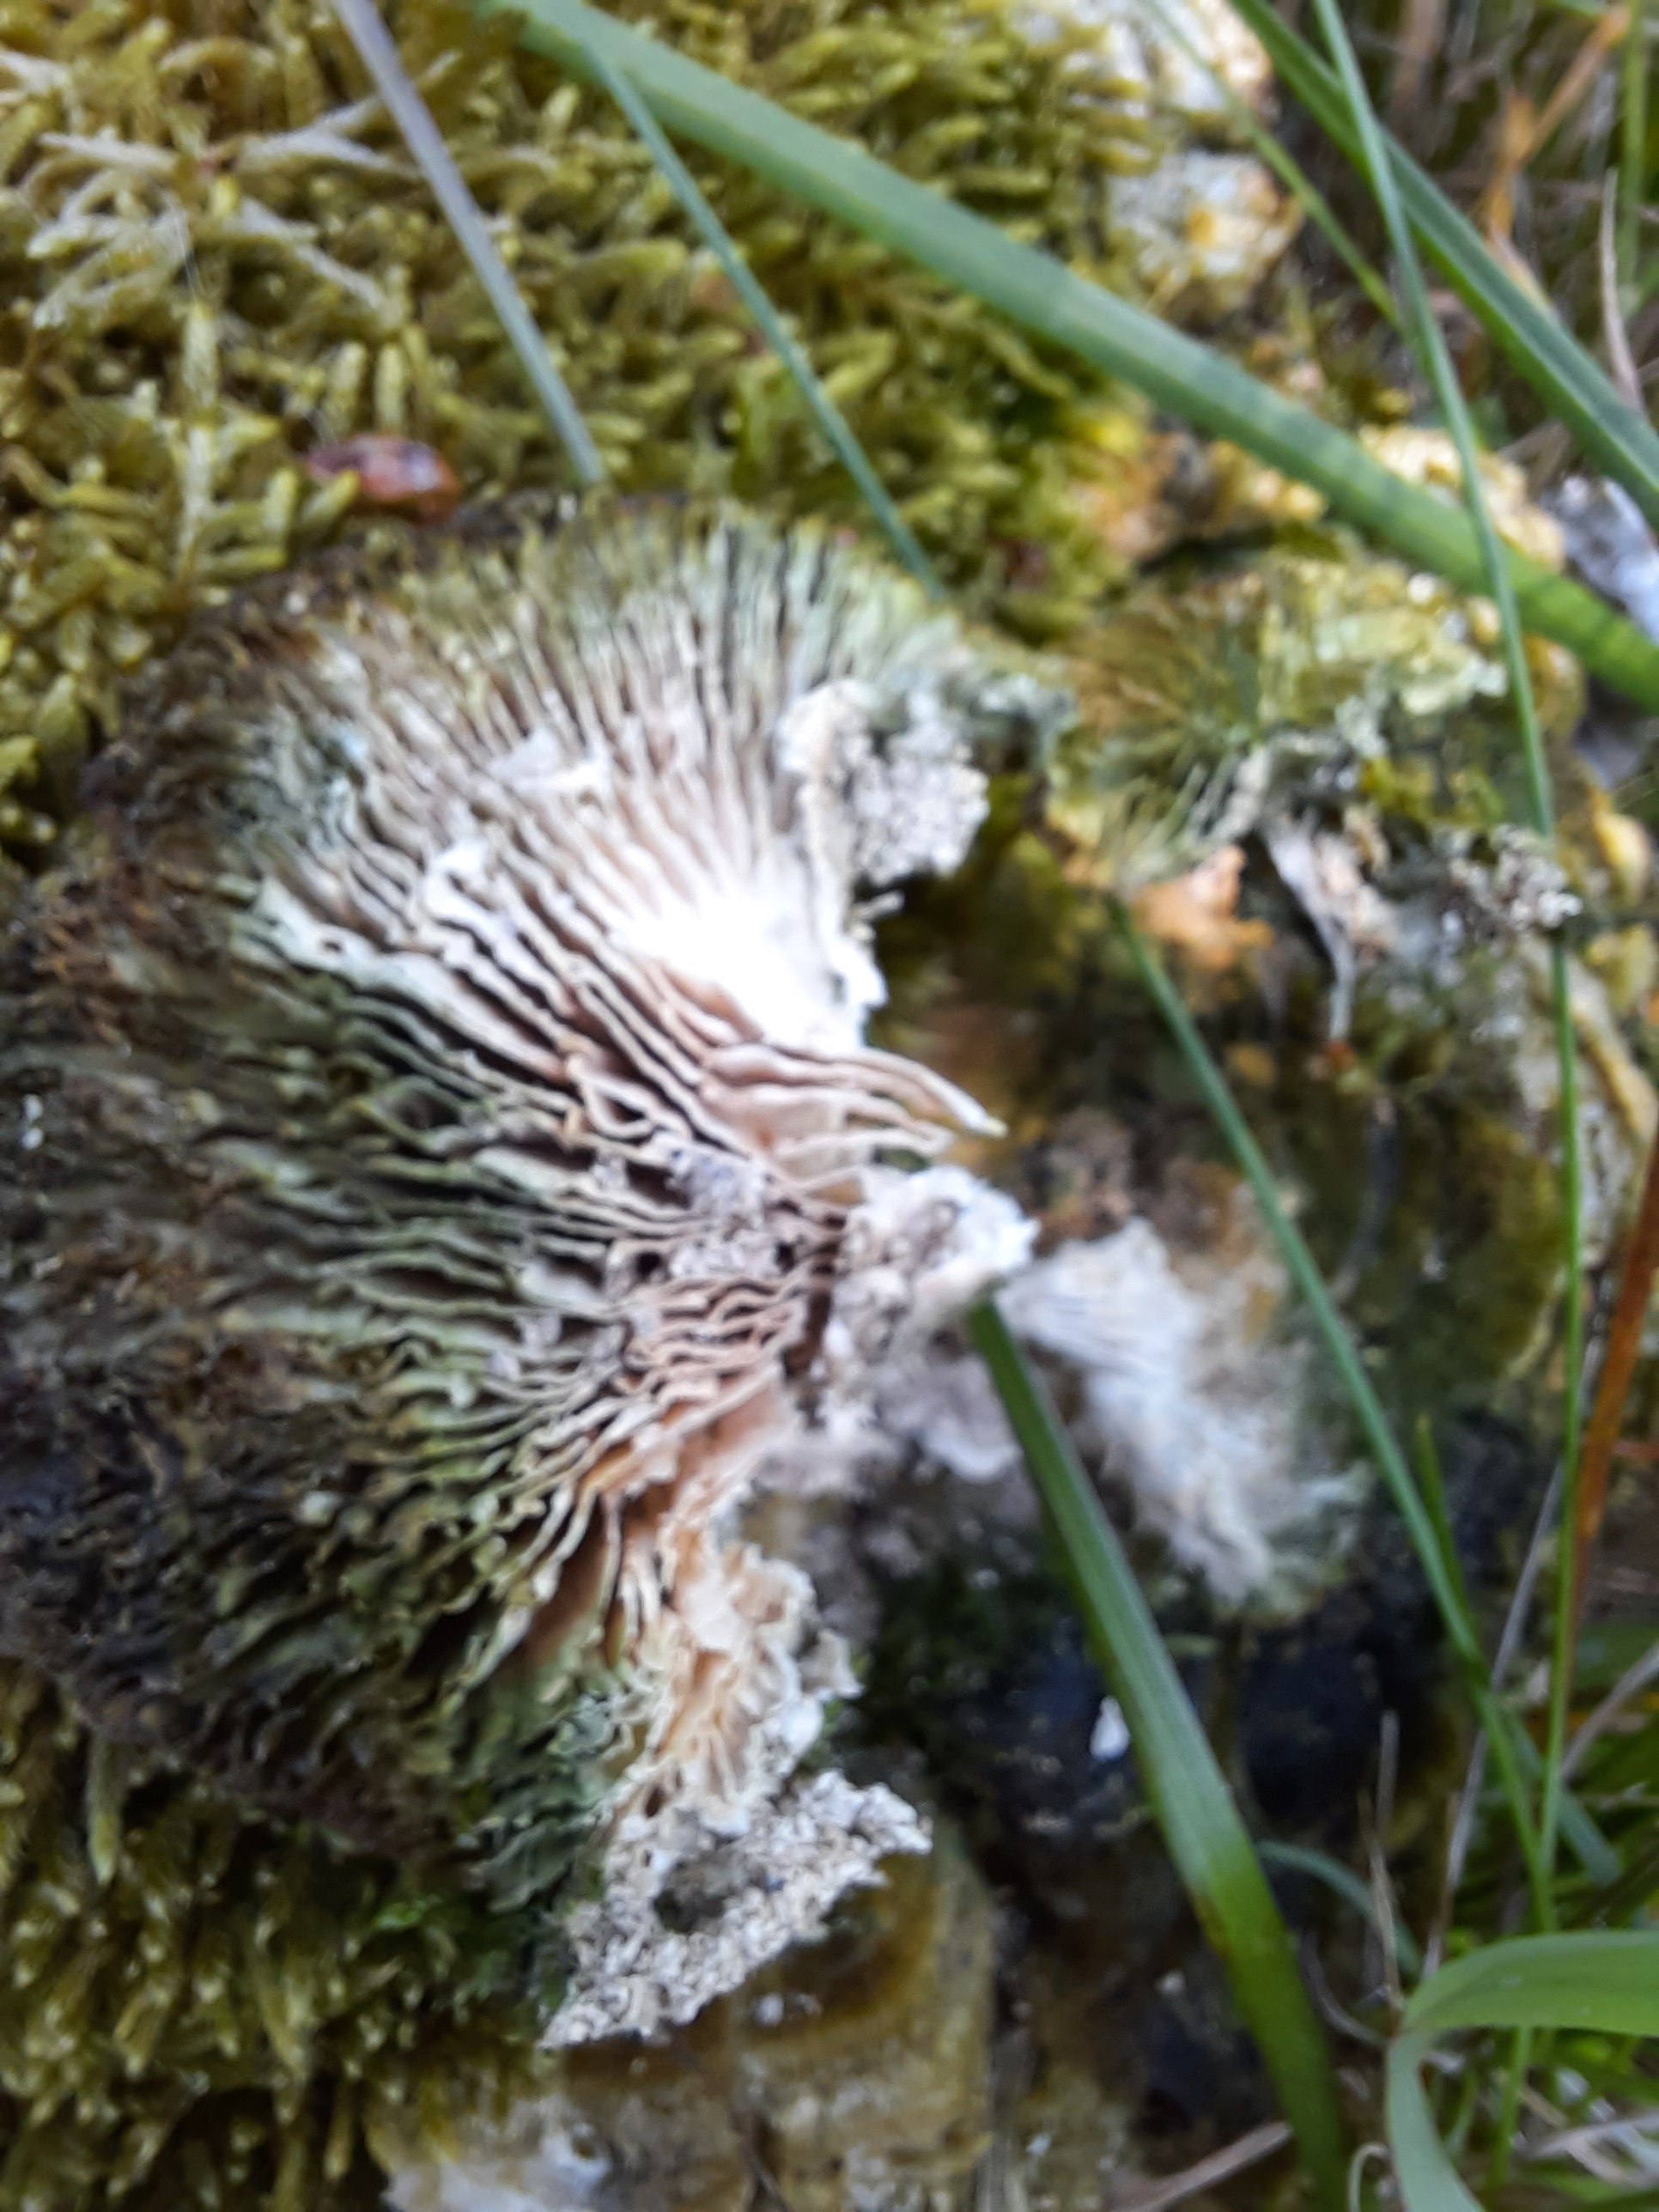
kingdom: Fungi
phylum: Basidiomycota
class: Agaricomycetes
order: Polyporales
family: Polyporaceae
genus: Lenzites
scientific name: Lenzites betulinus
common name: birke-læderporesvamp
